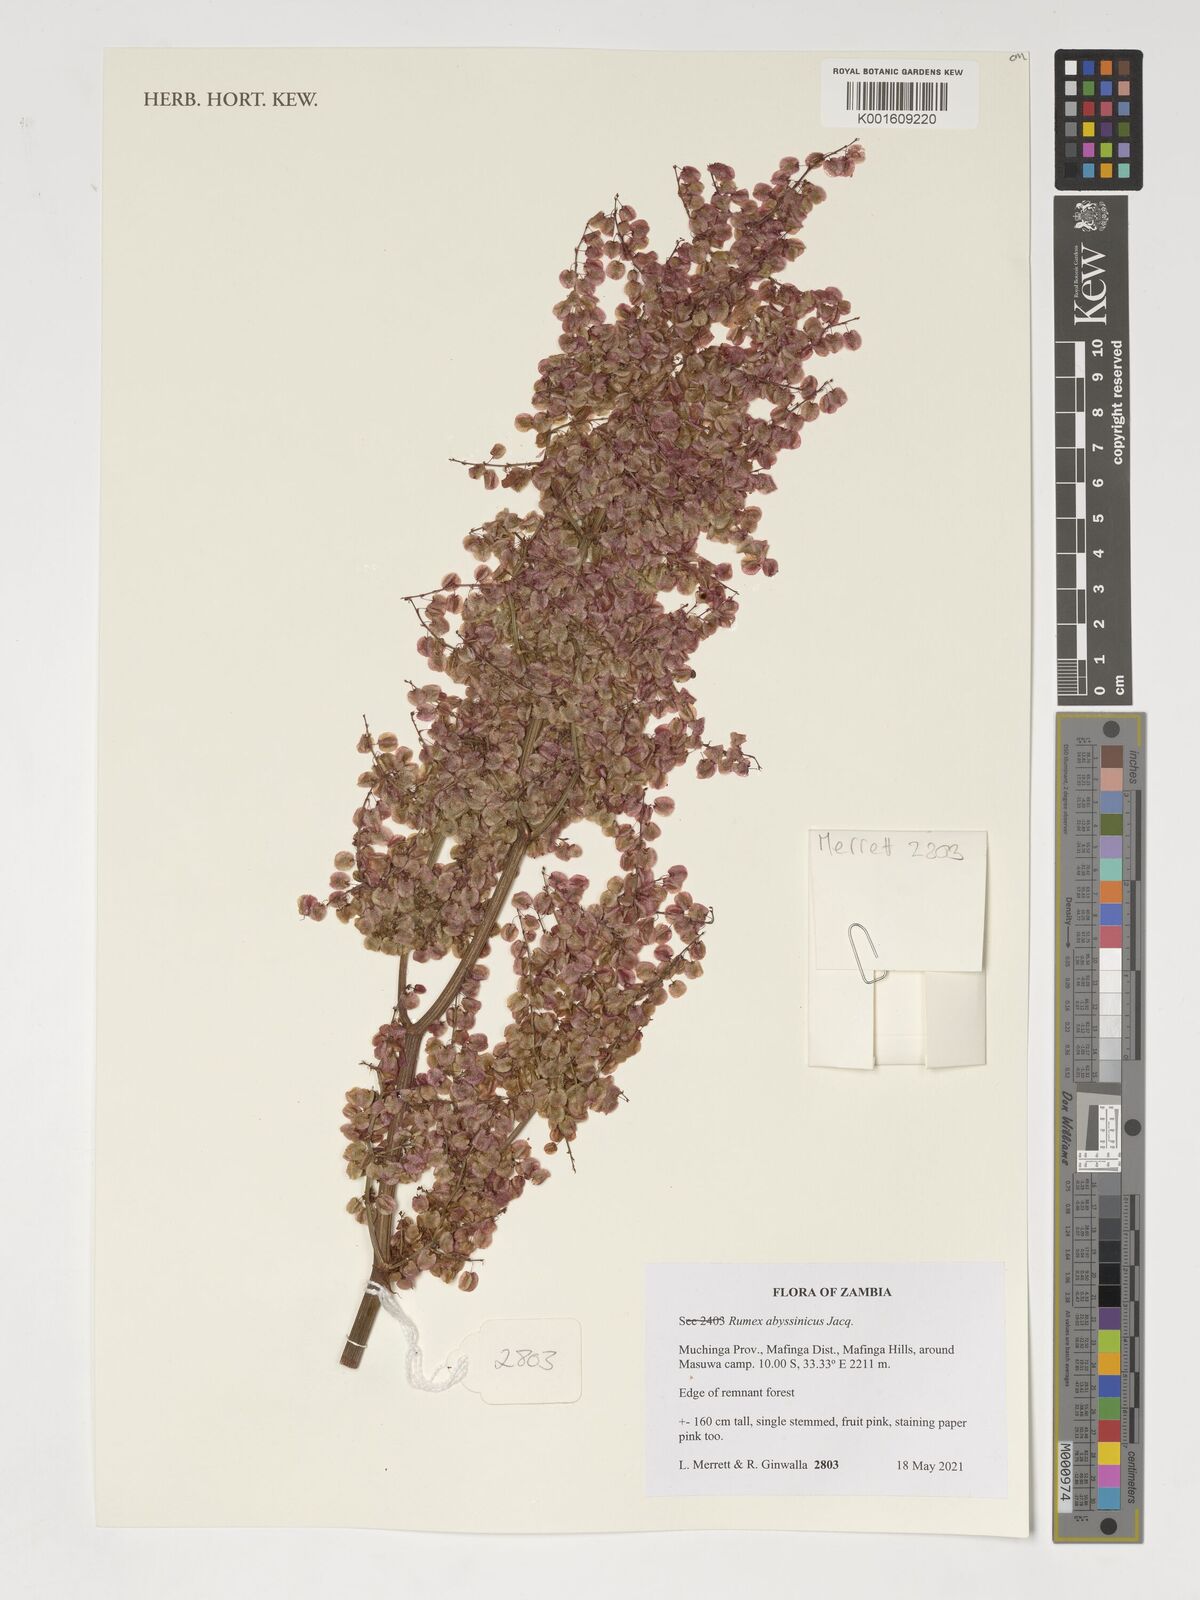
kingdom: Plantae
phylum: Tracheophyta
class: Magnoliopsida
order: Caryophyllales
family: Polygonaceae
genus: Rumex
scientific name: Rumex abyssinicus
